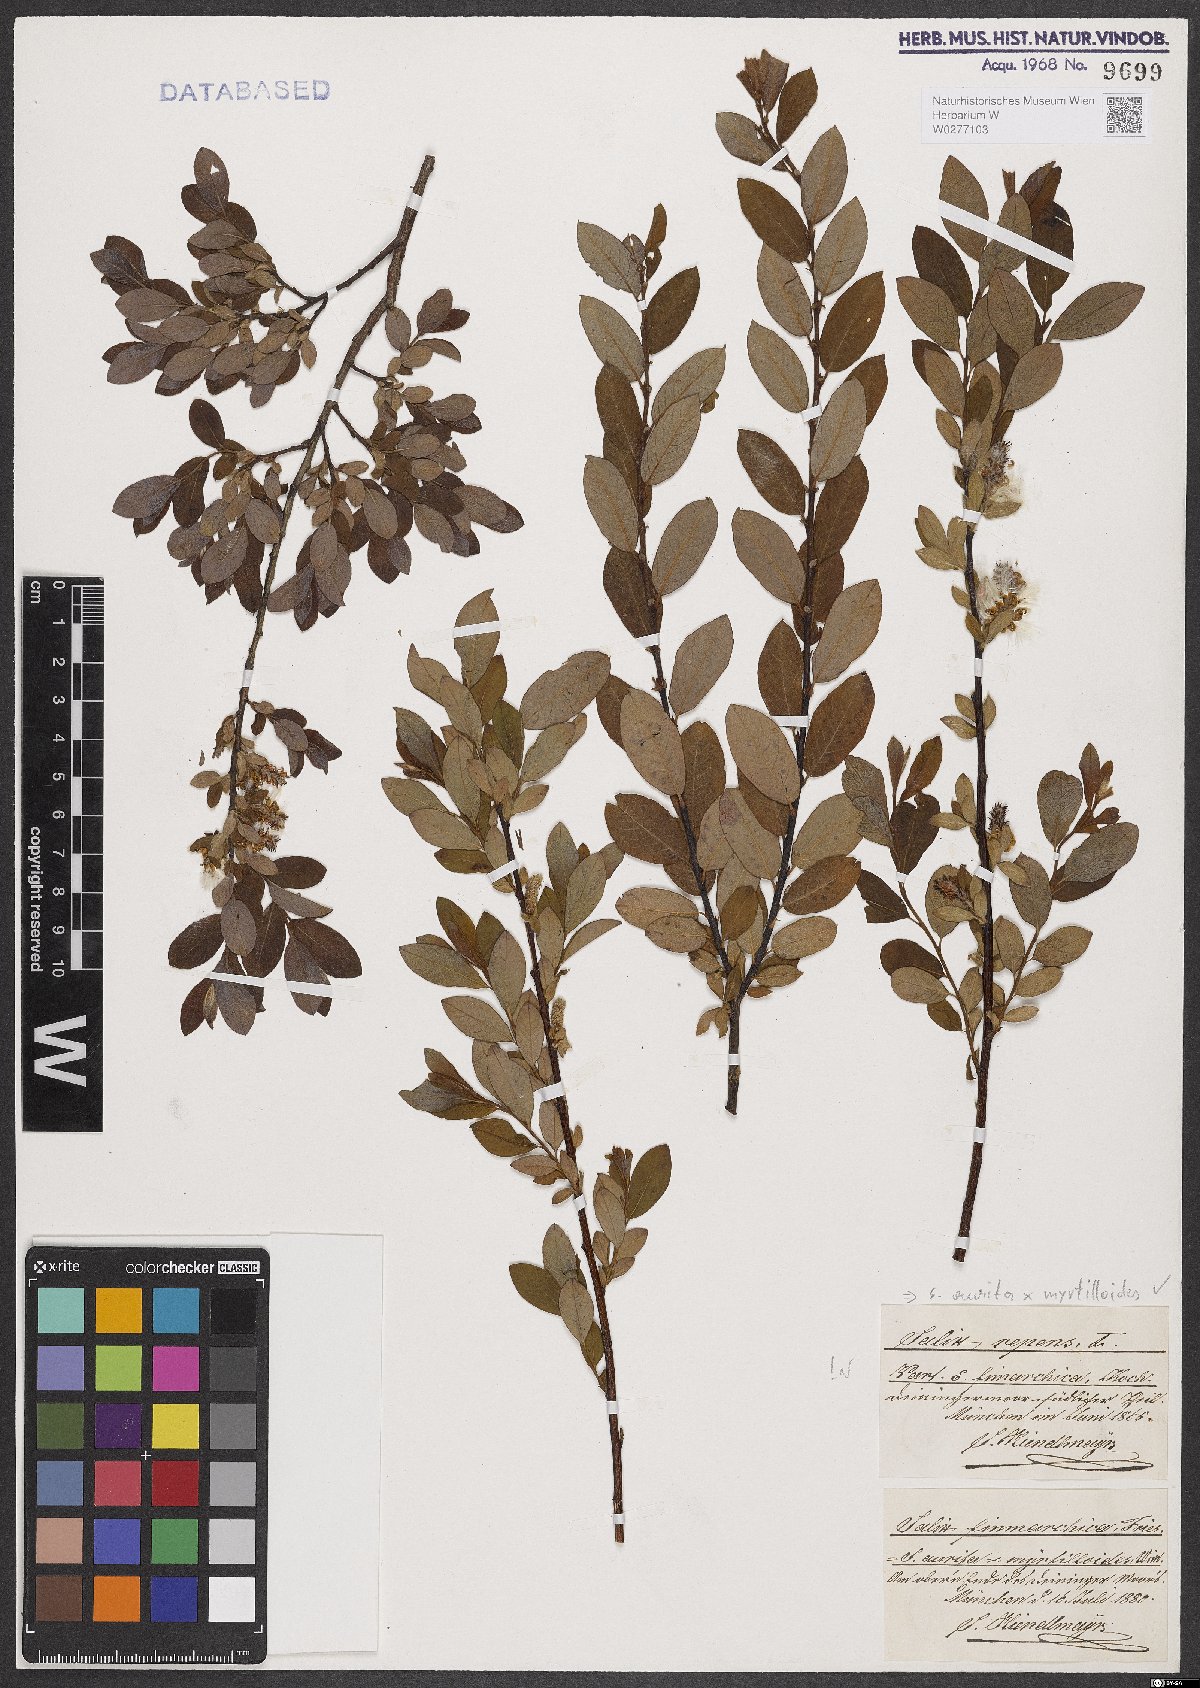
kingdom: Plantae
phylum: Tracheophyta
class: Magnoliopsida
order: Malpighiales
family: Salicaceae
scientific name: Salicaceae
